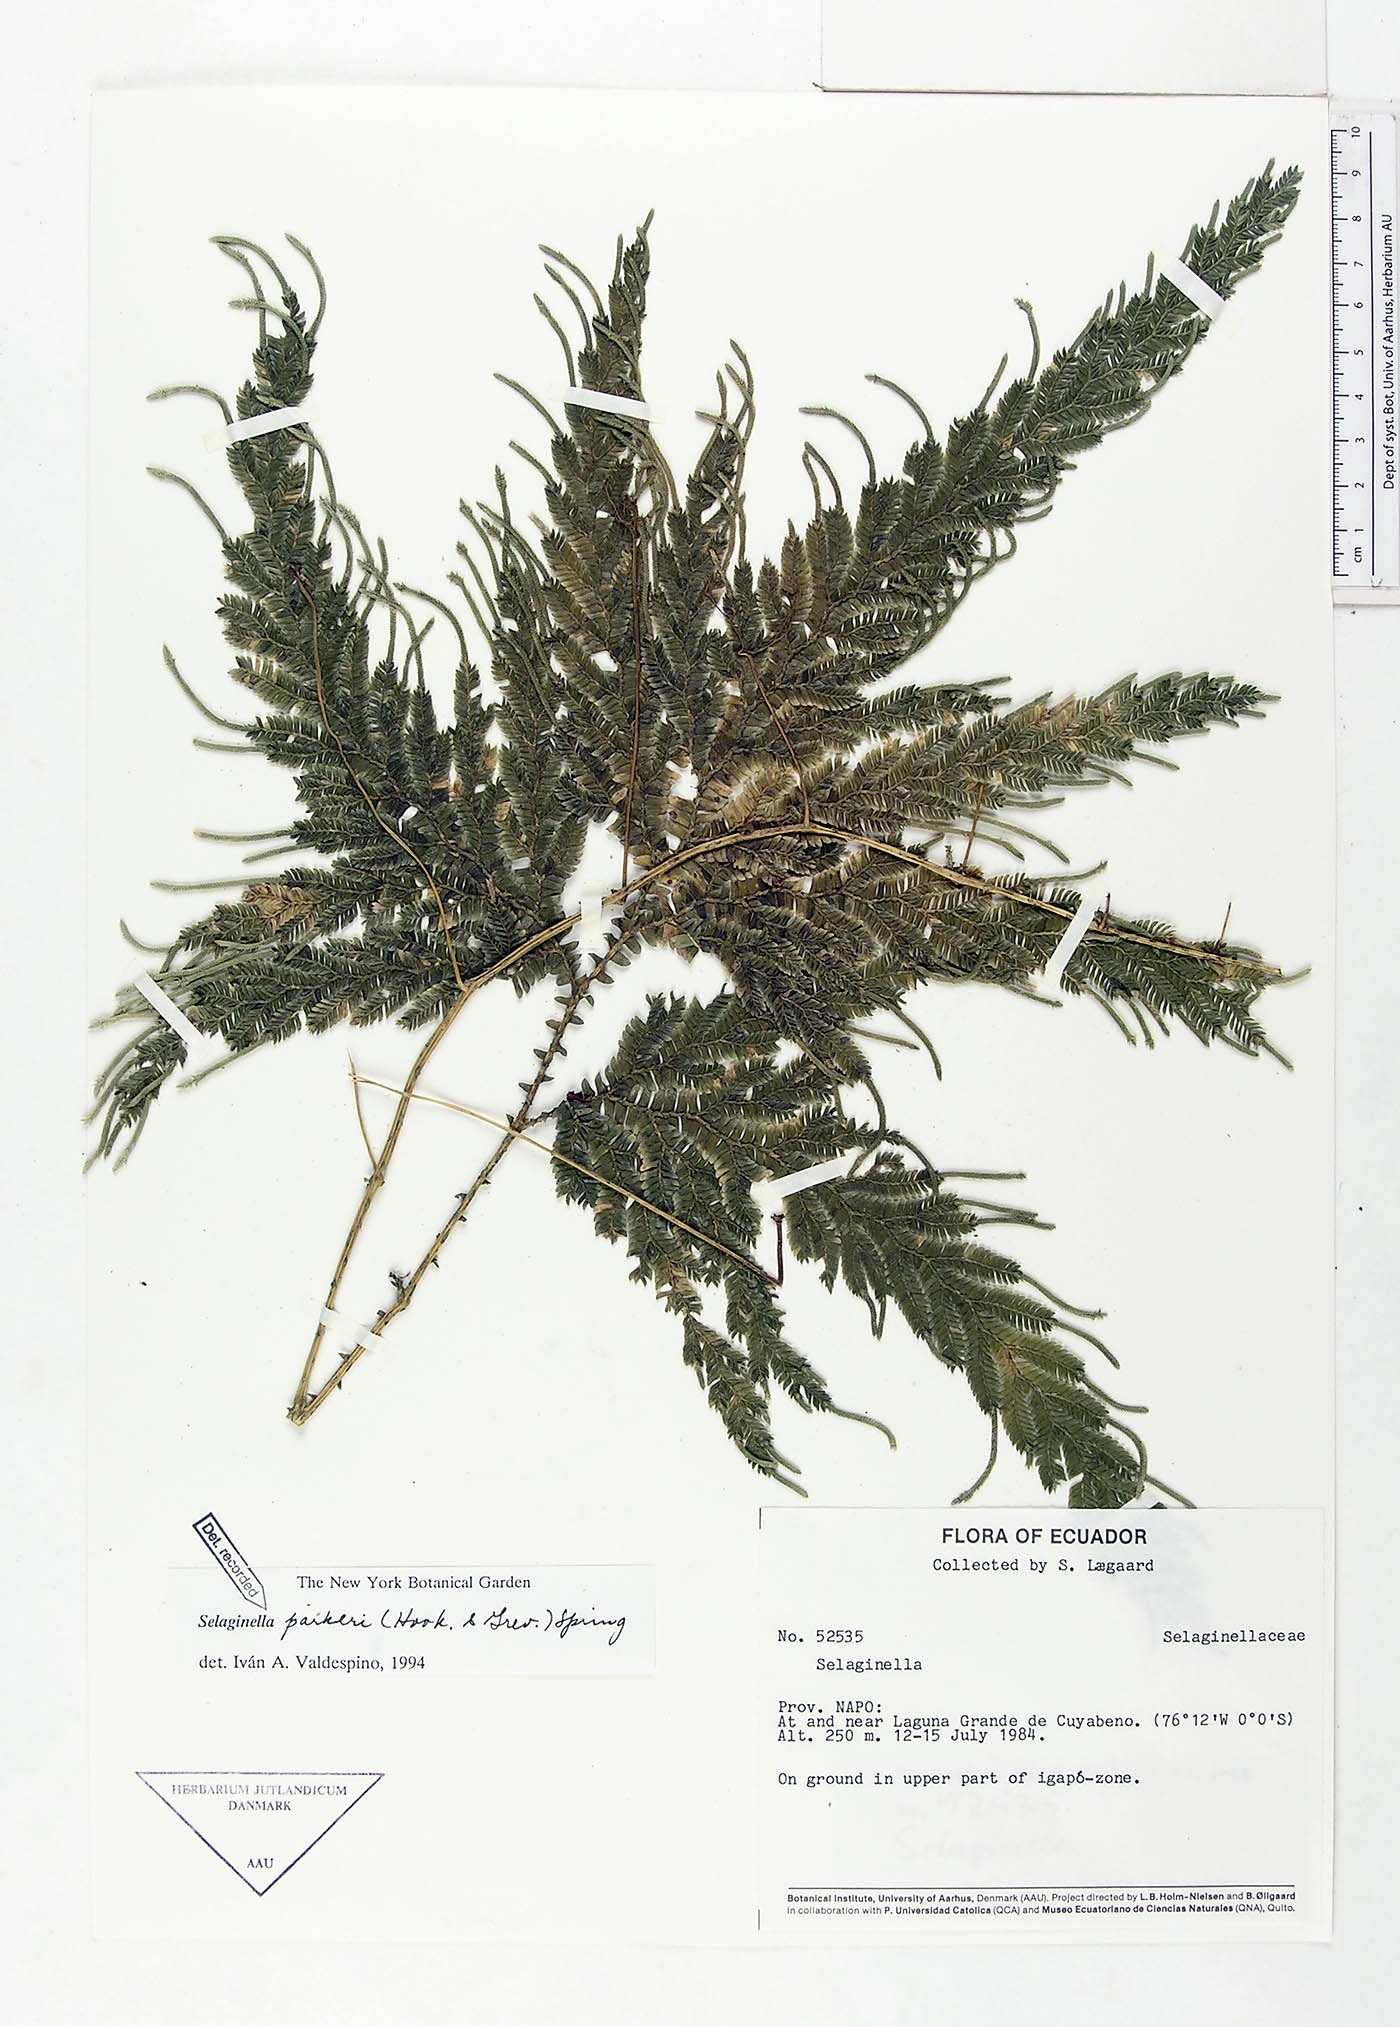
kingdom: Plantae
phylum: Tracheophyta
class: Lycopodiopsida
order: Selaginellales
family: Selaginellaceae
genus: Selaginella
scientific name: Selaginella parkeri
